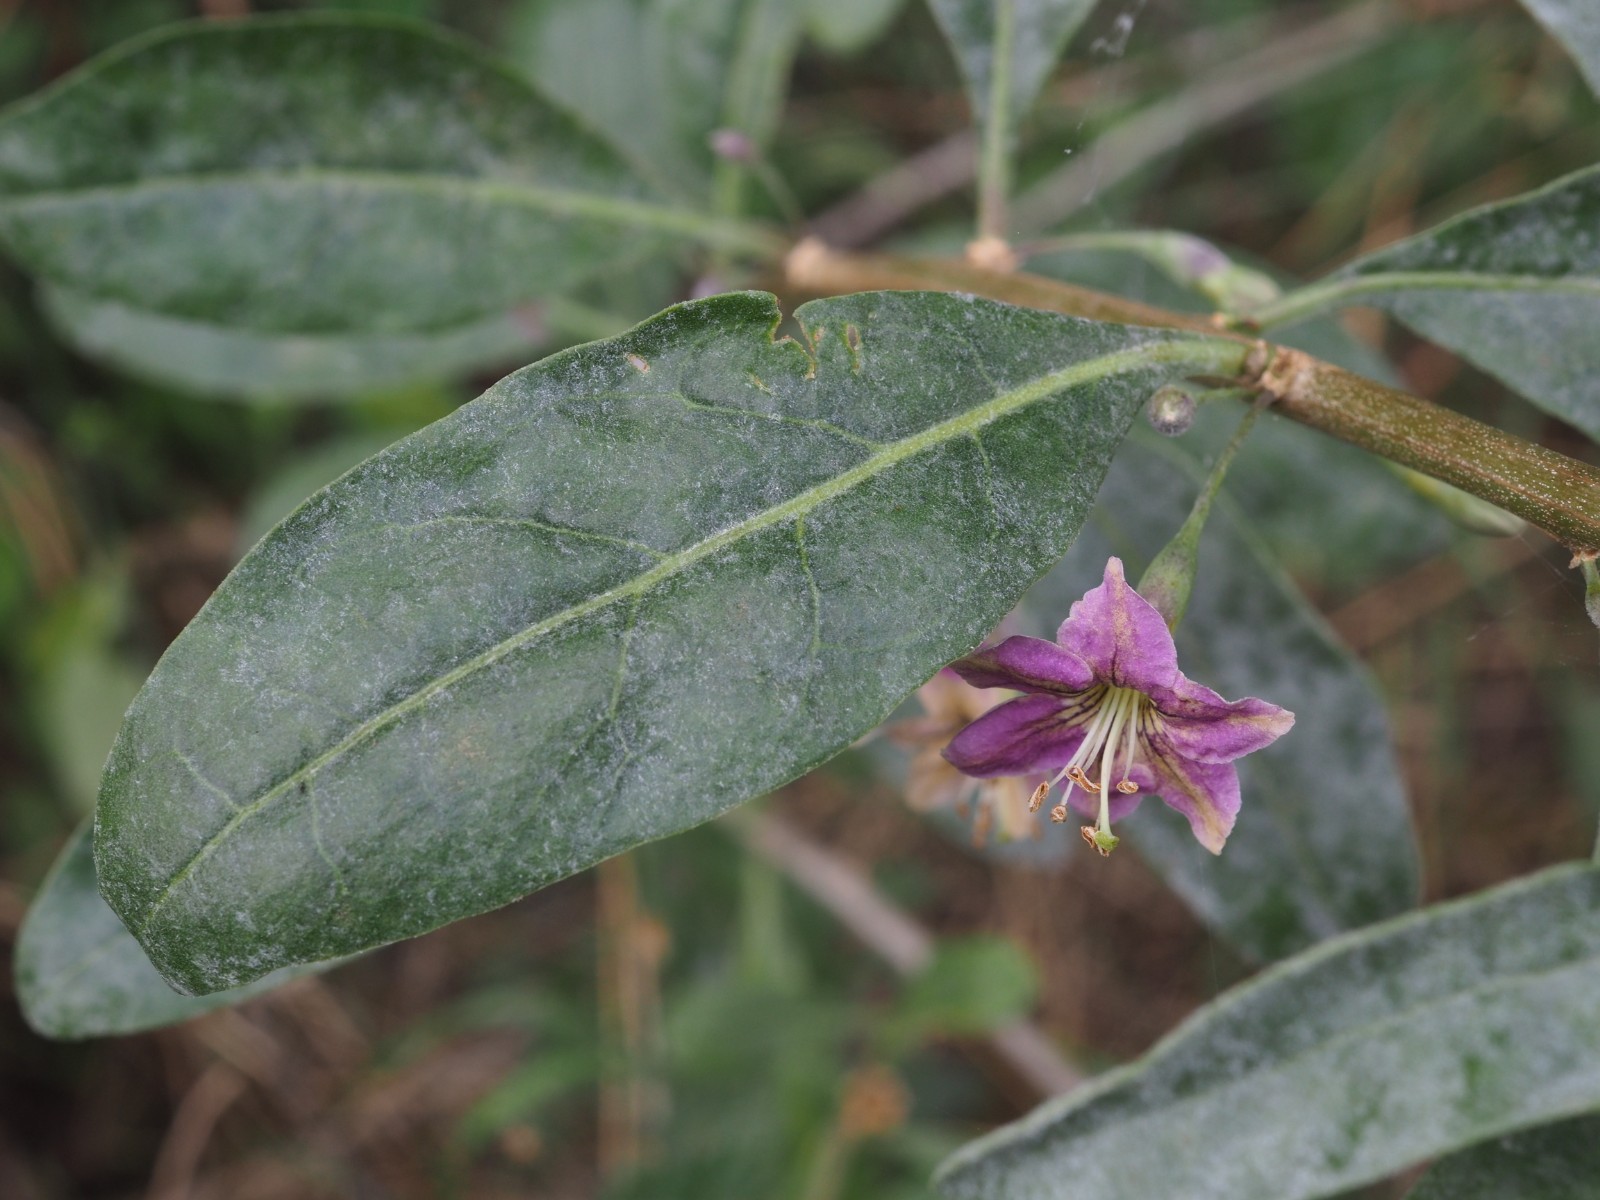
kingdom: Fungi
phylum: Ascomycota
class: Leotiomycetes
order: Helotiales
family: Erysiphaceae
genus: Erysiphe
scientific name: Erysiphe mougeotii
